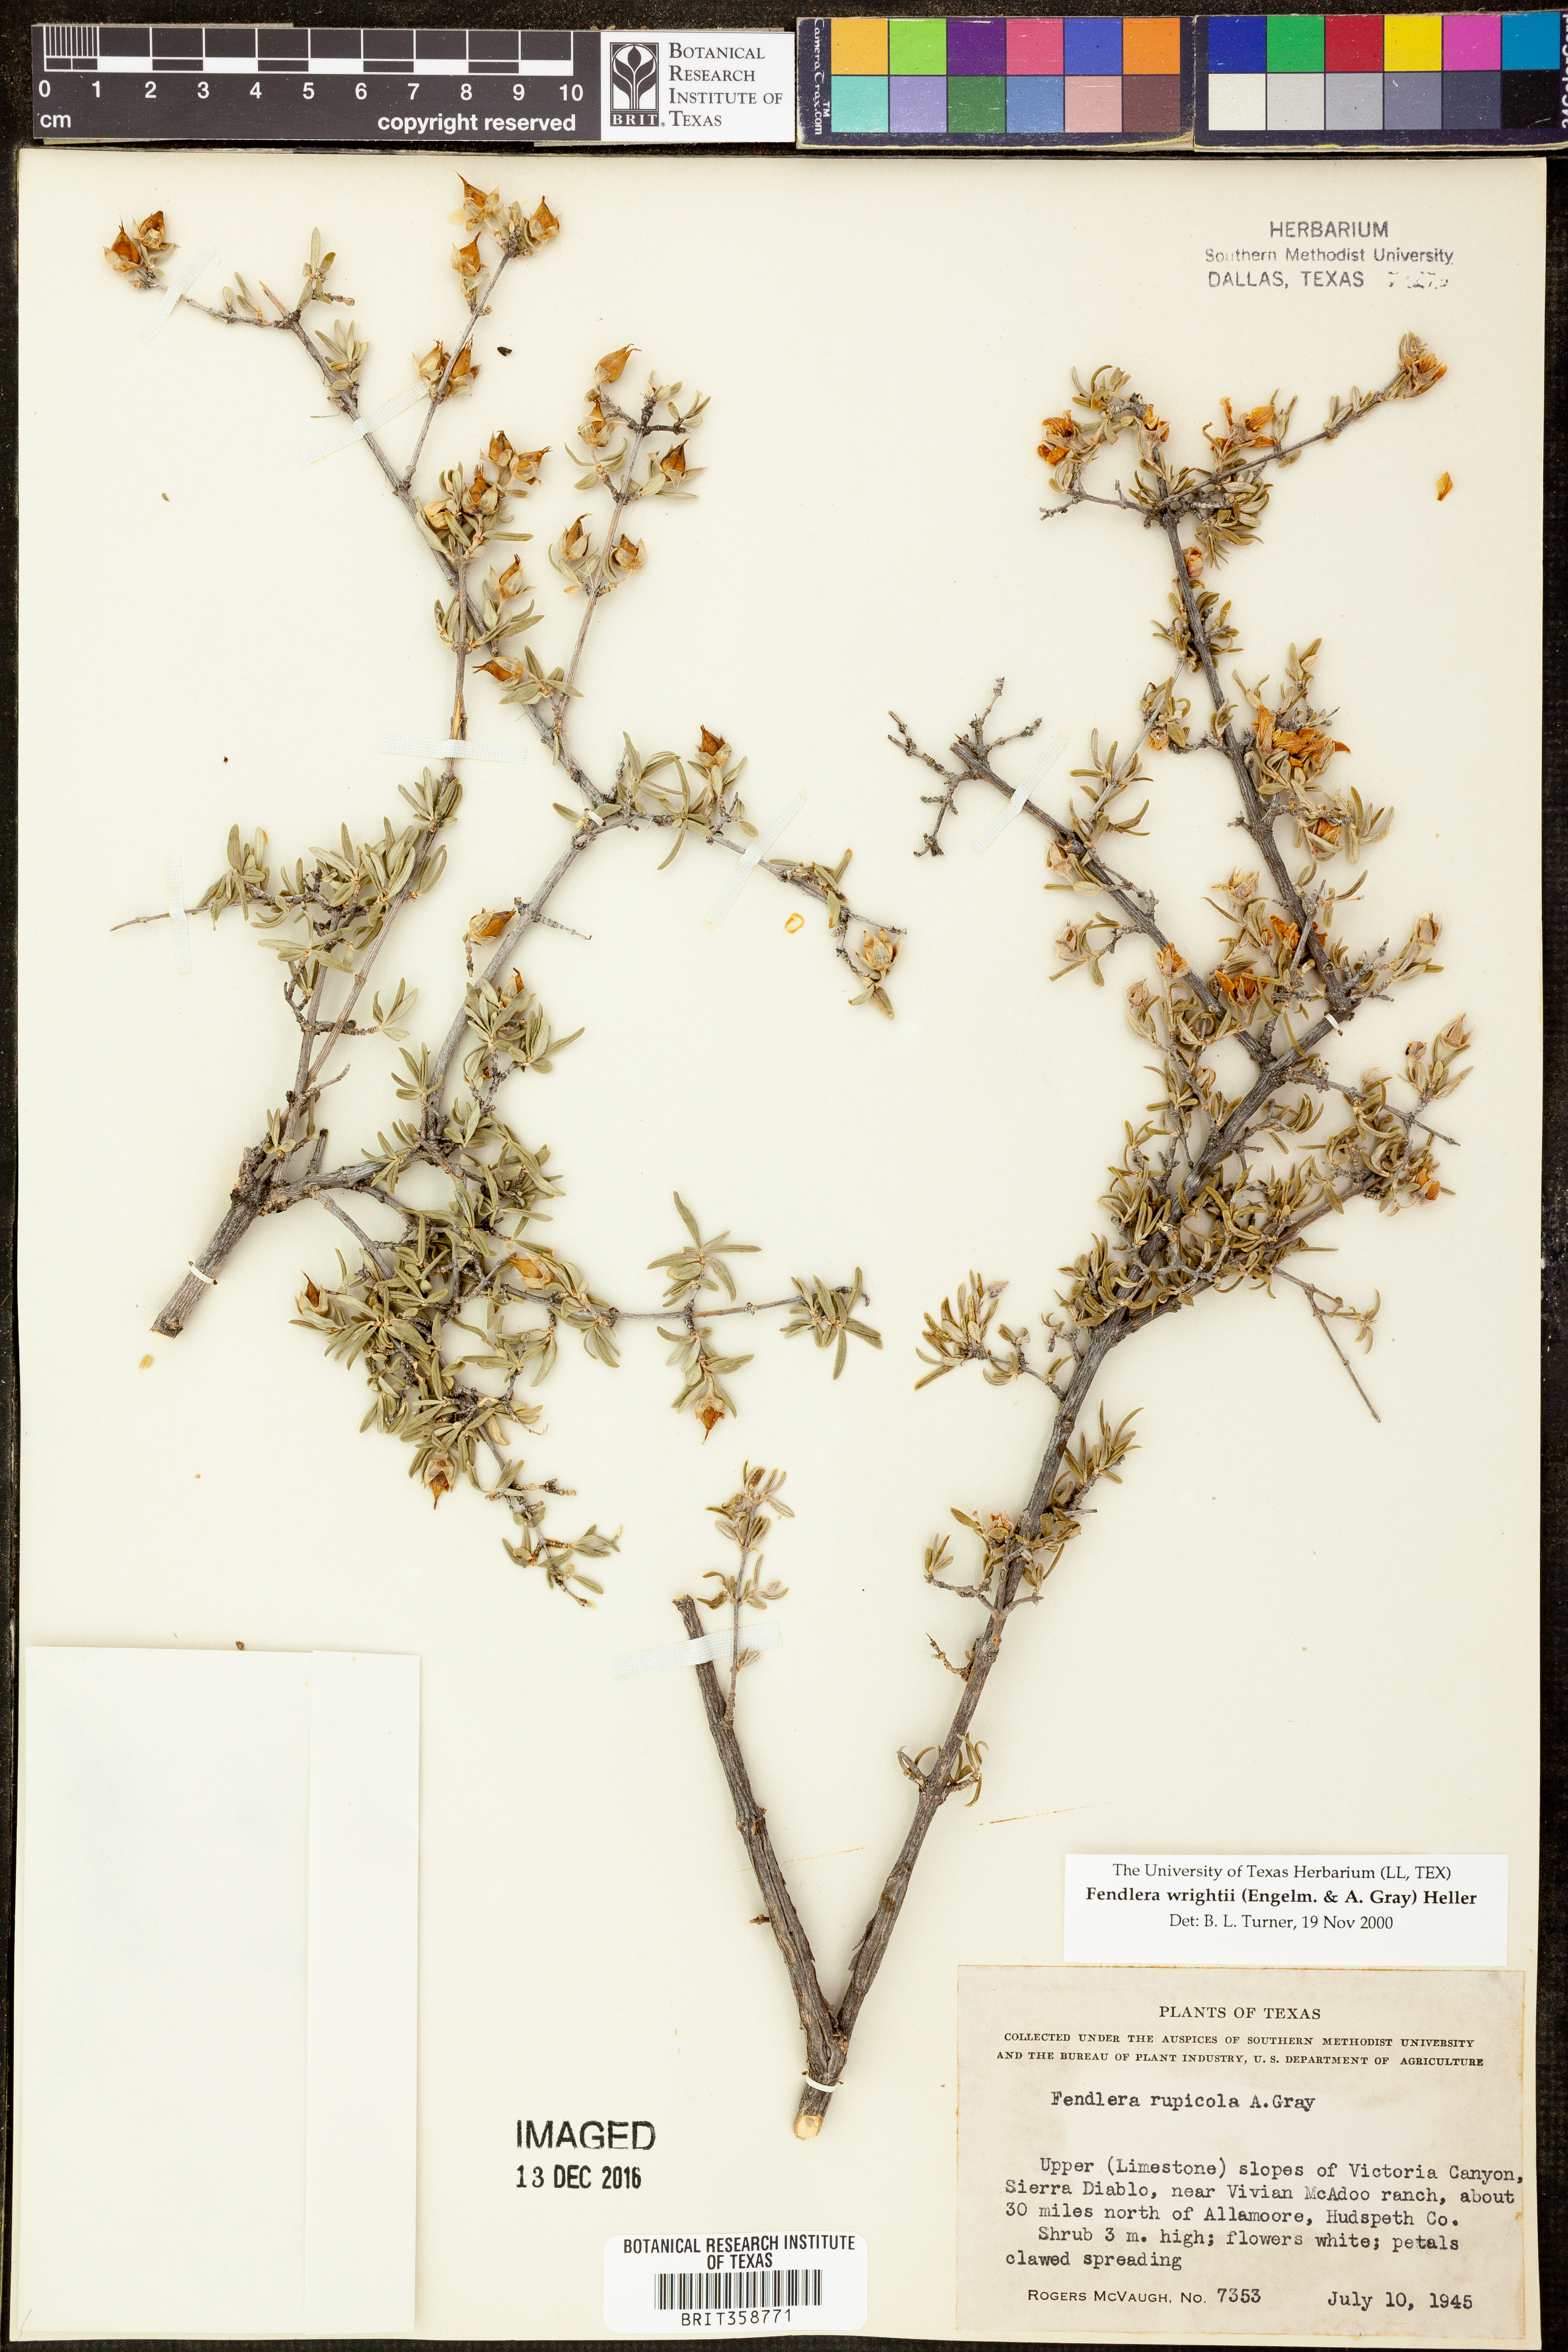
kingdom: Plantae
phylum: Tracheophyta
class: Magnoliopsida
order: Cornales
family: Hydrangeaceae
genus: Fendlera
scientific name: Fendlera wrightii
